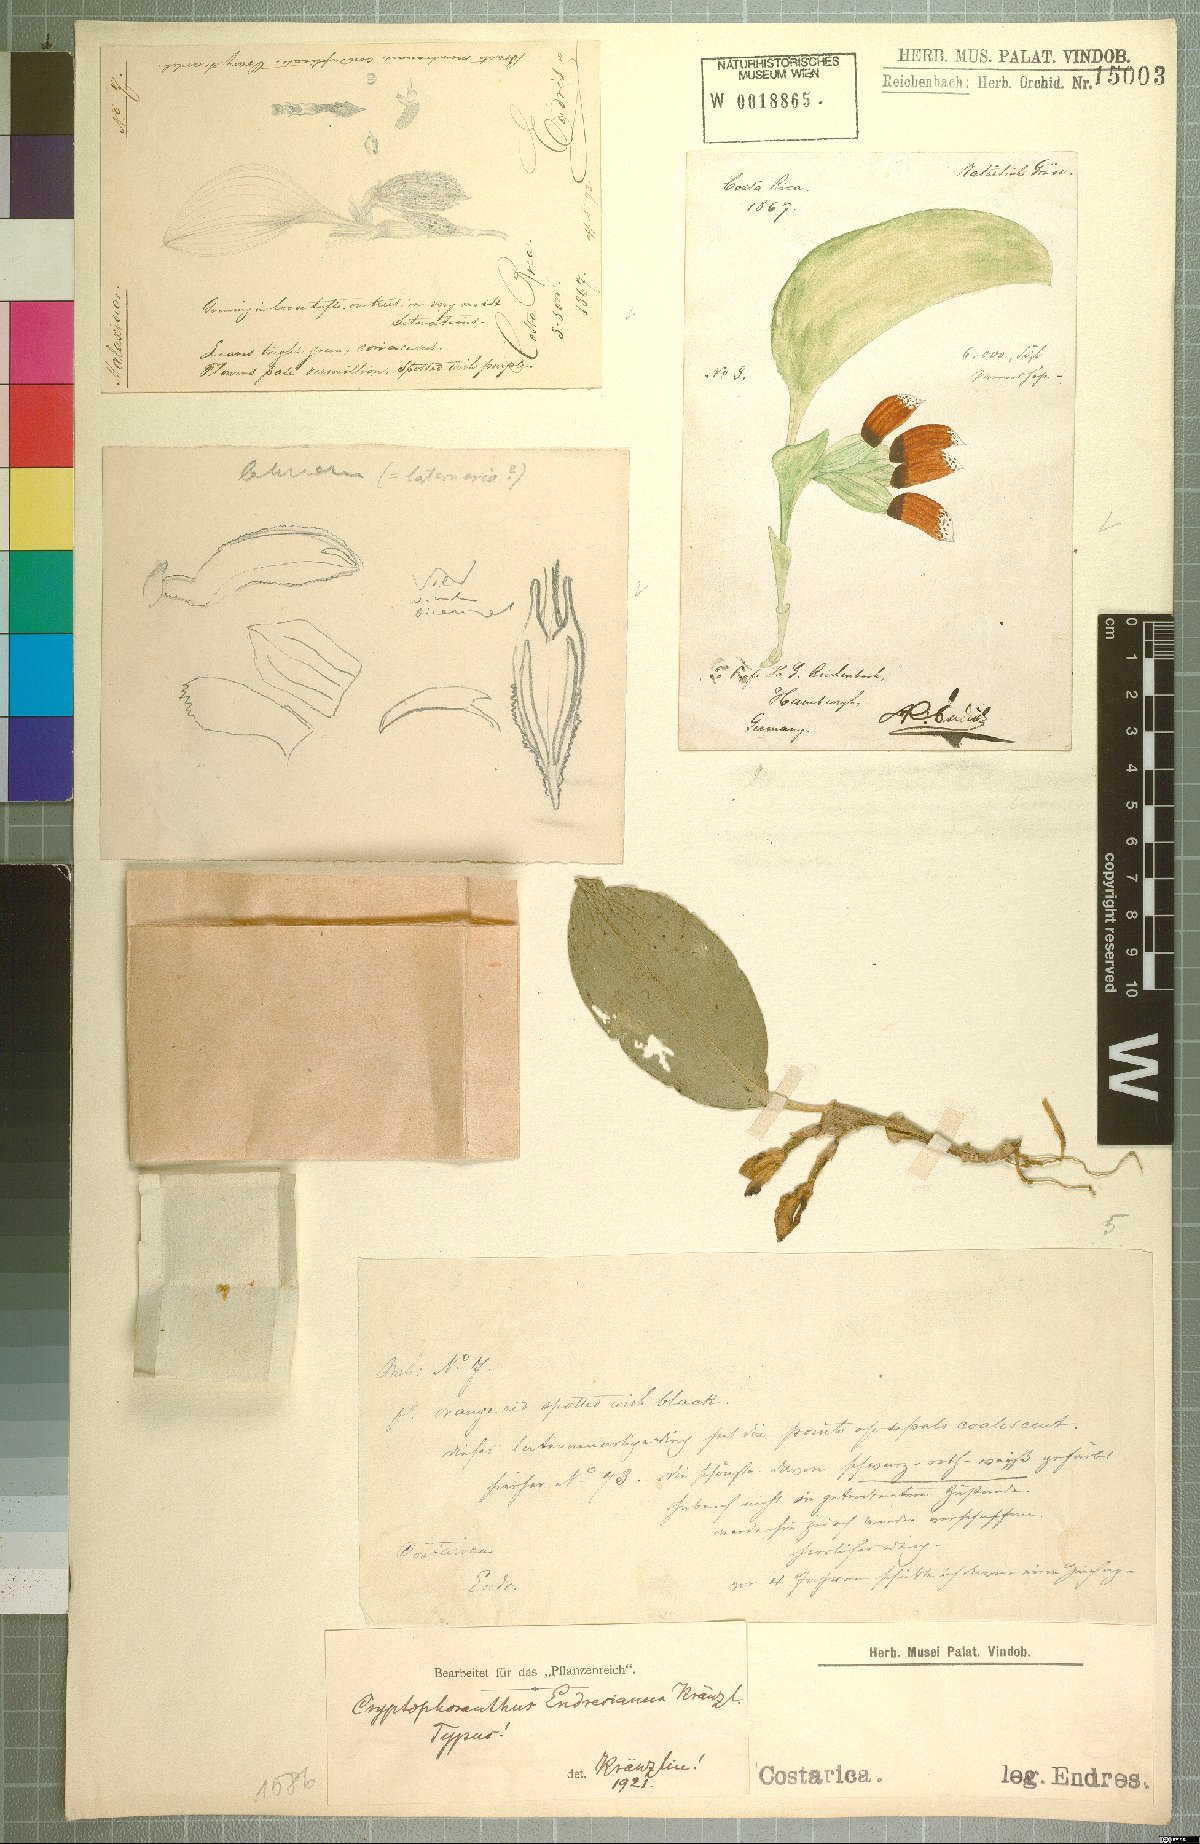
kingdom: Plantae
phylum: Tracheophyta
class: Liliopsida
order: Asparagales
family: Orchidaceae
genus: Zootrophion
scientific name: Zootrophion endresianum
